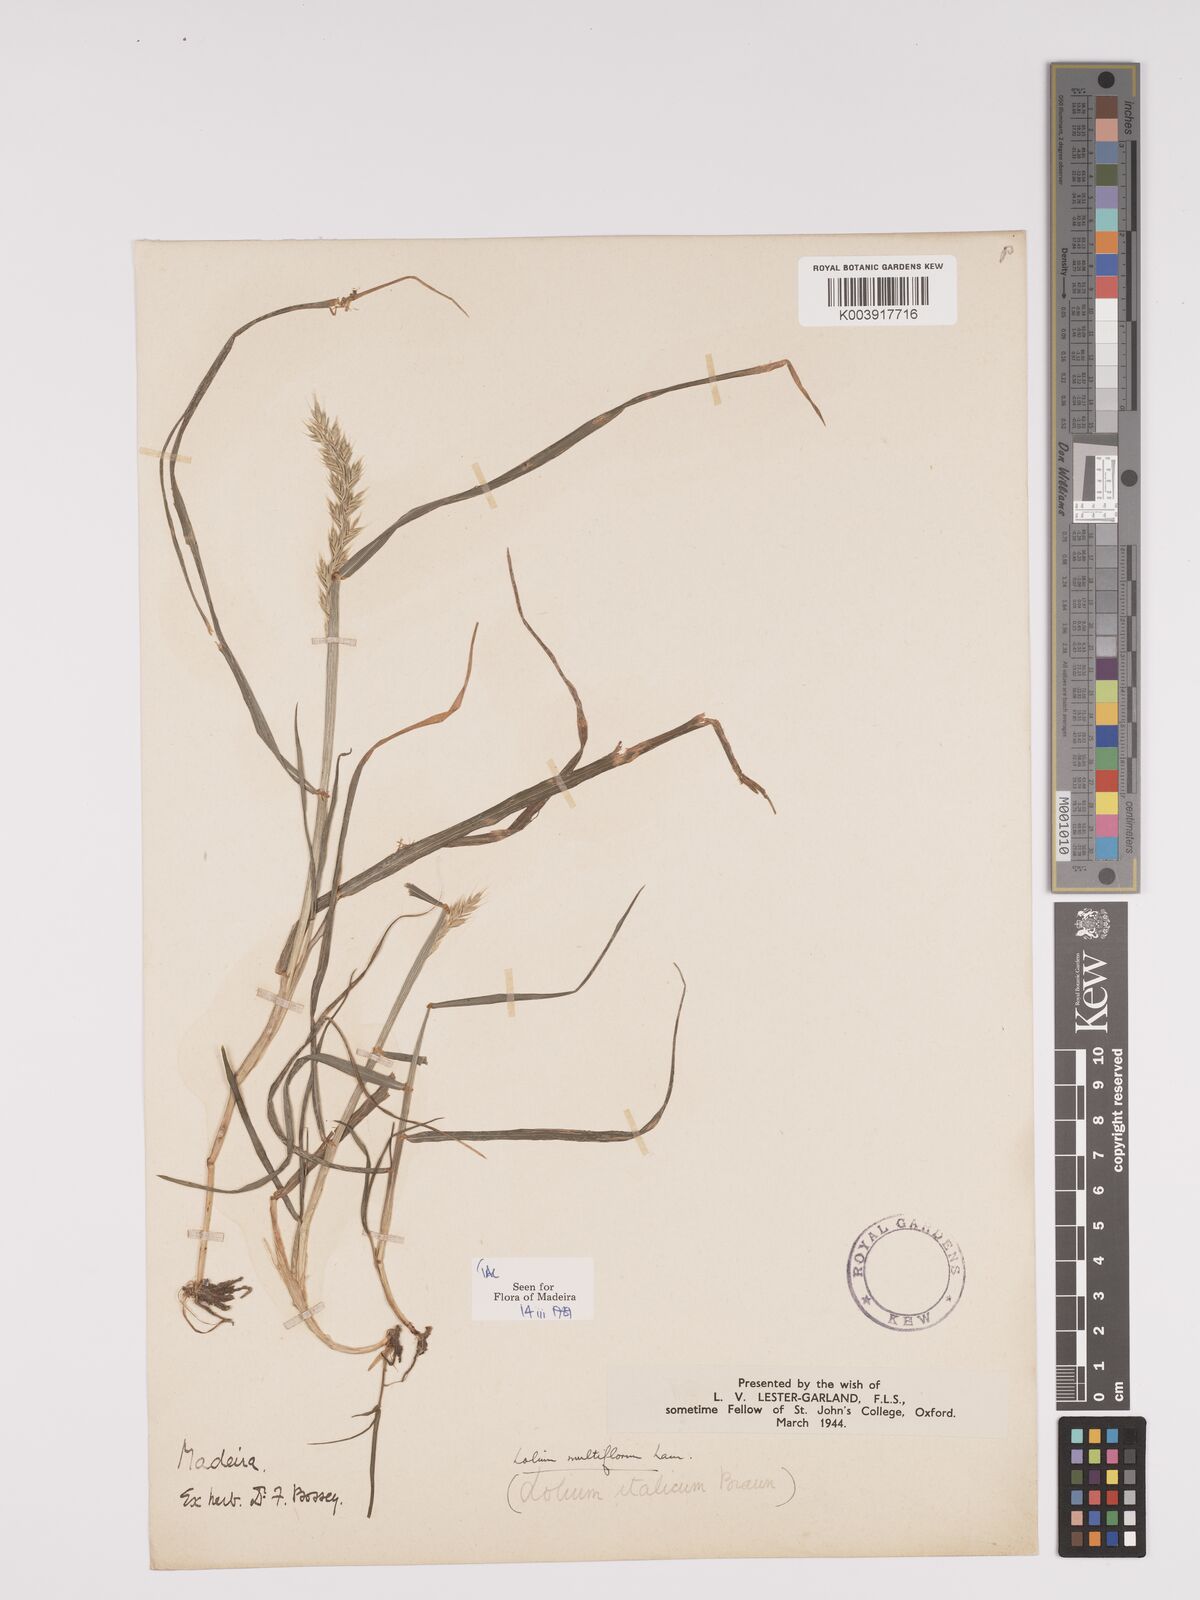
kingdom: Plantae
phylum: Tracheophyta
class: Liliopsida
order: Poales
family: Poaceae
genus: Lolium
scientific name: Lolium multiflorum
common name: Annual ryegrass
